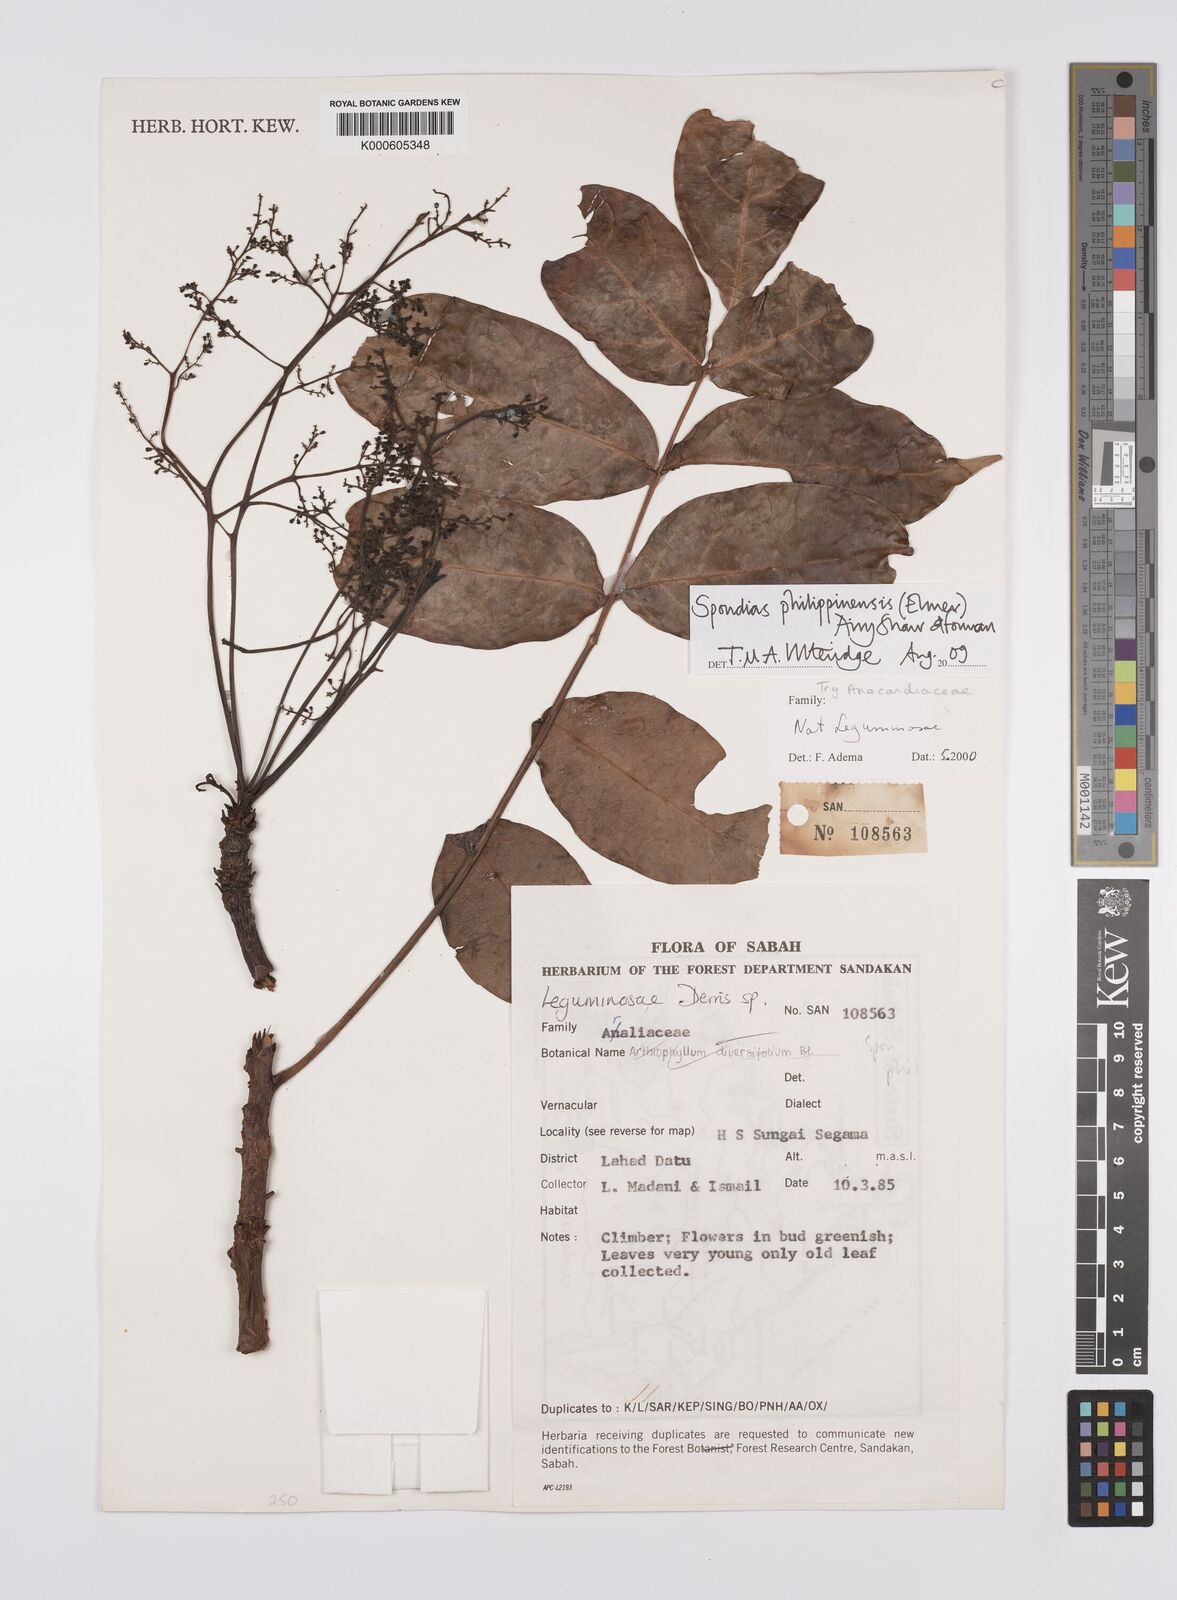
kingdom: Plantae
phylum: Tracheophyta
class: Magnoliopsida
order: Sapindales
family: Anacardiaceae
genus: Spondias
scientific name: Spondias philippinensis
